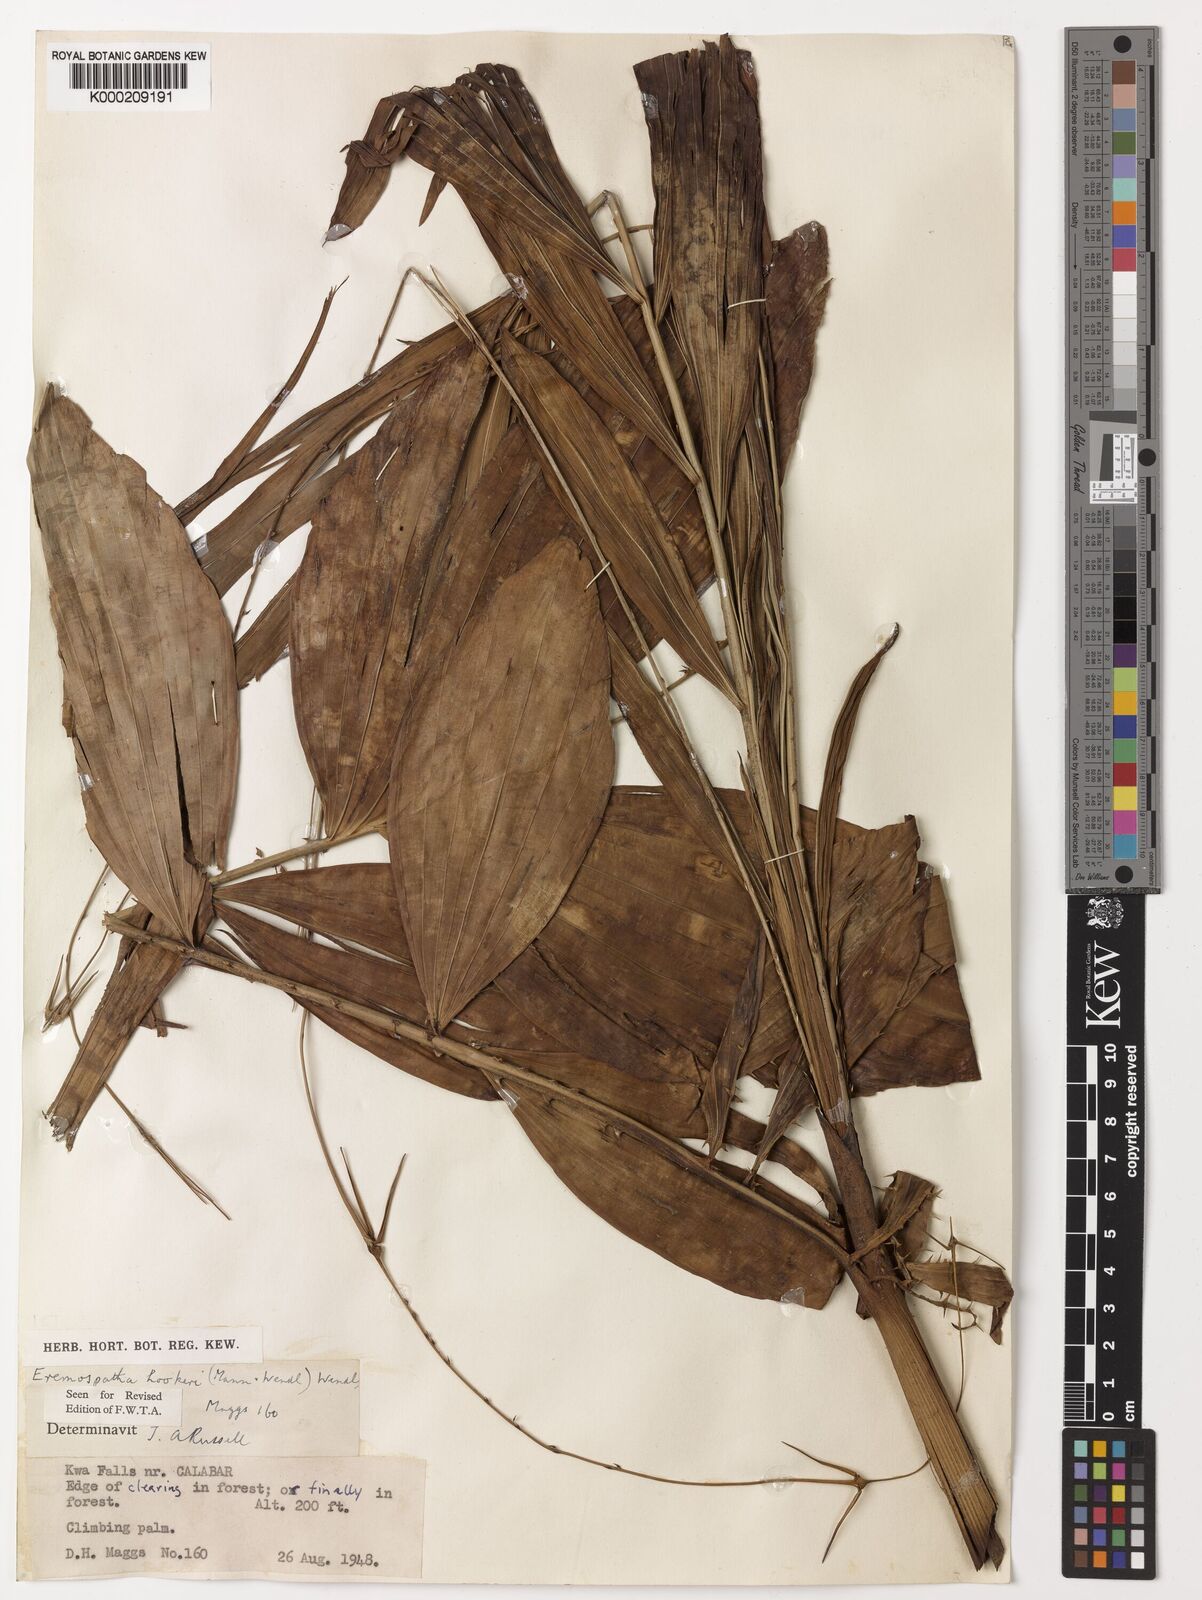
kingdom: Plantae
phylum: Tracheophyta
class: Liliopsida
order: Arecales
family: Arecaceae
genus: Eremospatha
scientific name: Eremospatha hookeri
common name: Rattan
